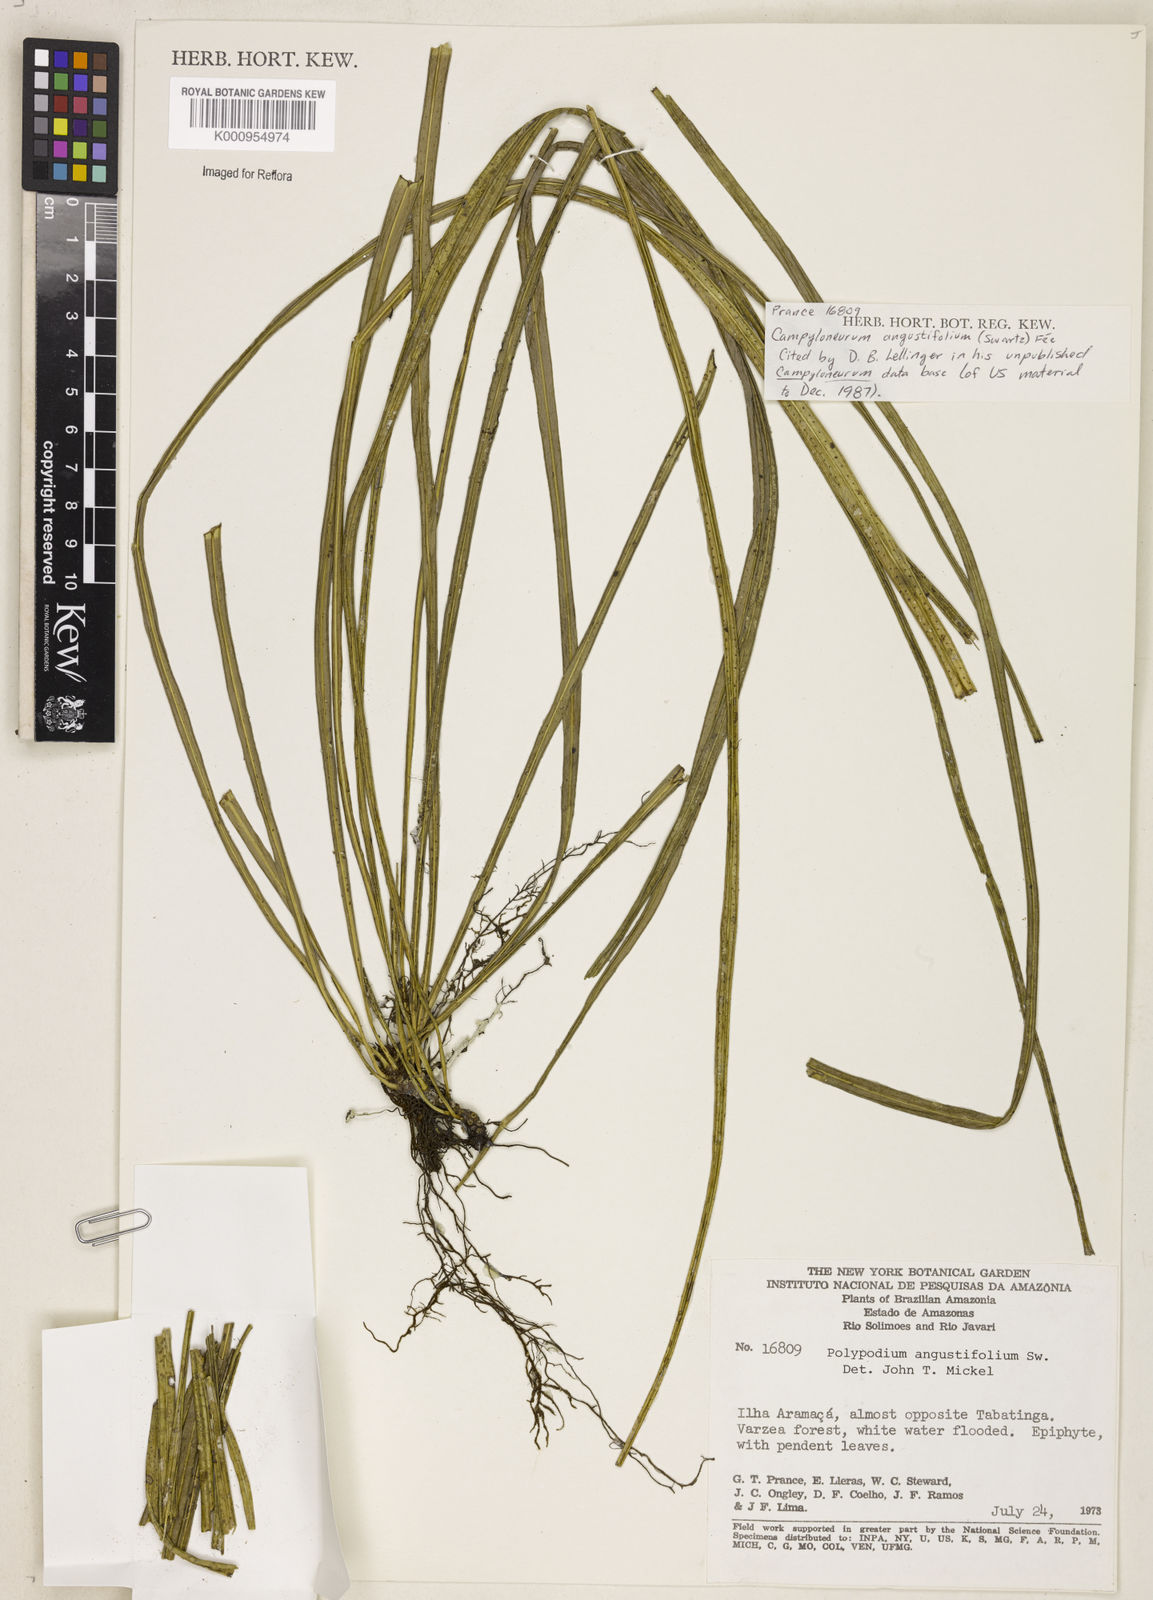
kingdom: Plantae
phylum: Tracheophyta
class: Polypodiopsida
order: Polypodiales
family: Polypodiaceae
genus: Campyloneurum
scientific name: Campyloneurum
